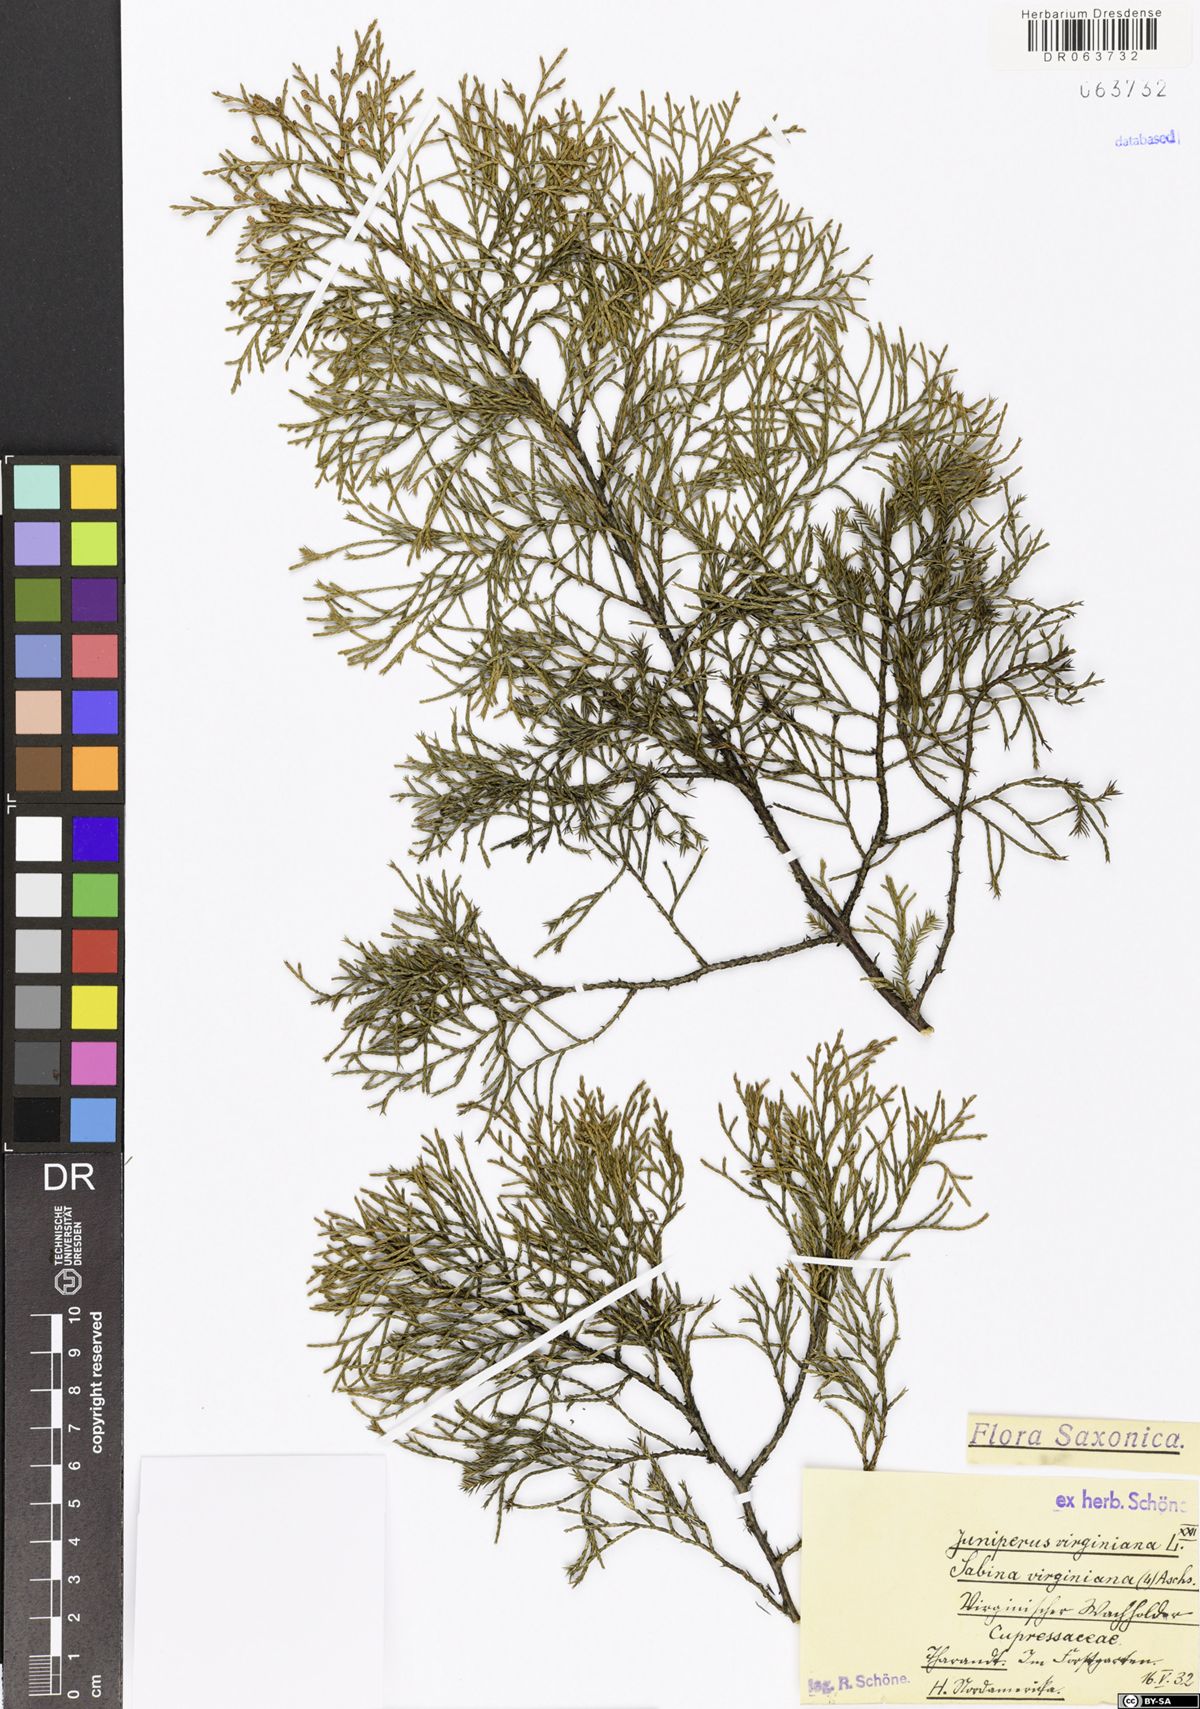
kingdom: Plantae
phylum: Tracheophyta
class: Pinopsida
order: Pinales
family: Cupressaceae
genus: Juniperus
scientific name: Juniperus virginiana
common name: Red juniper
